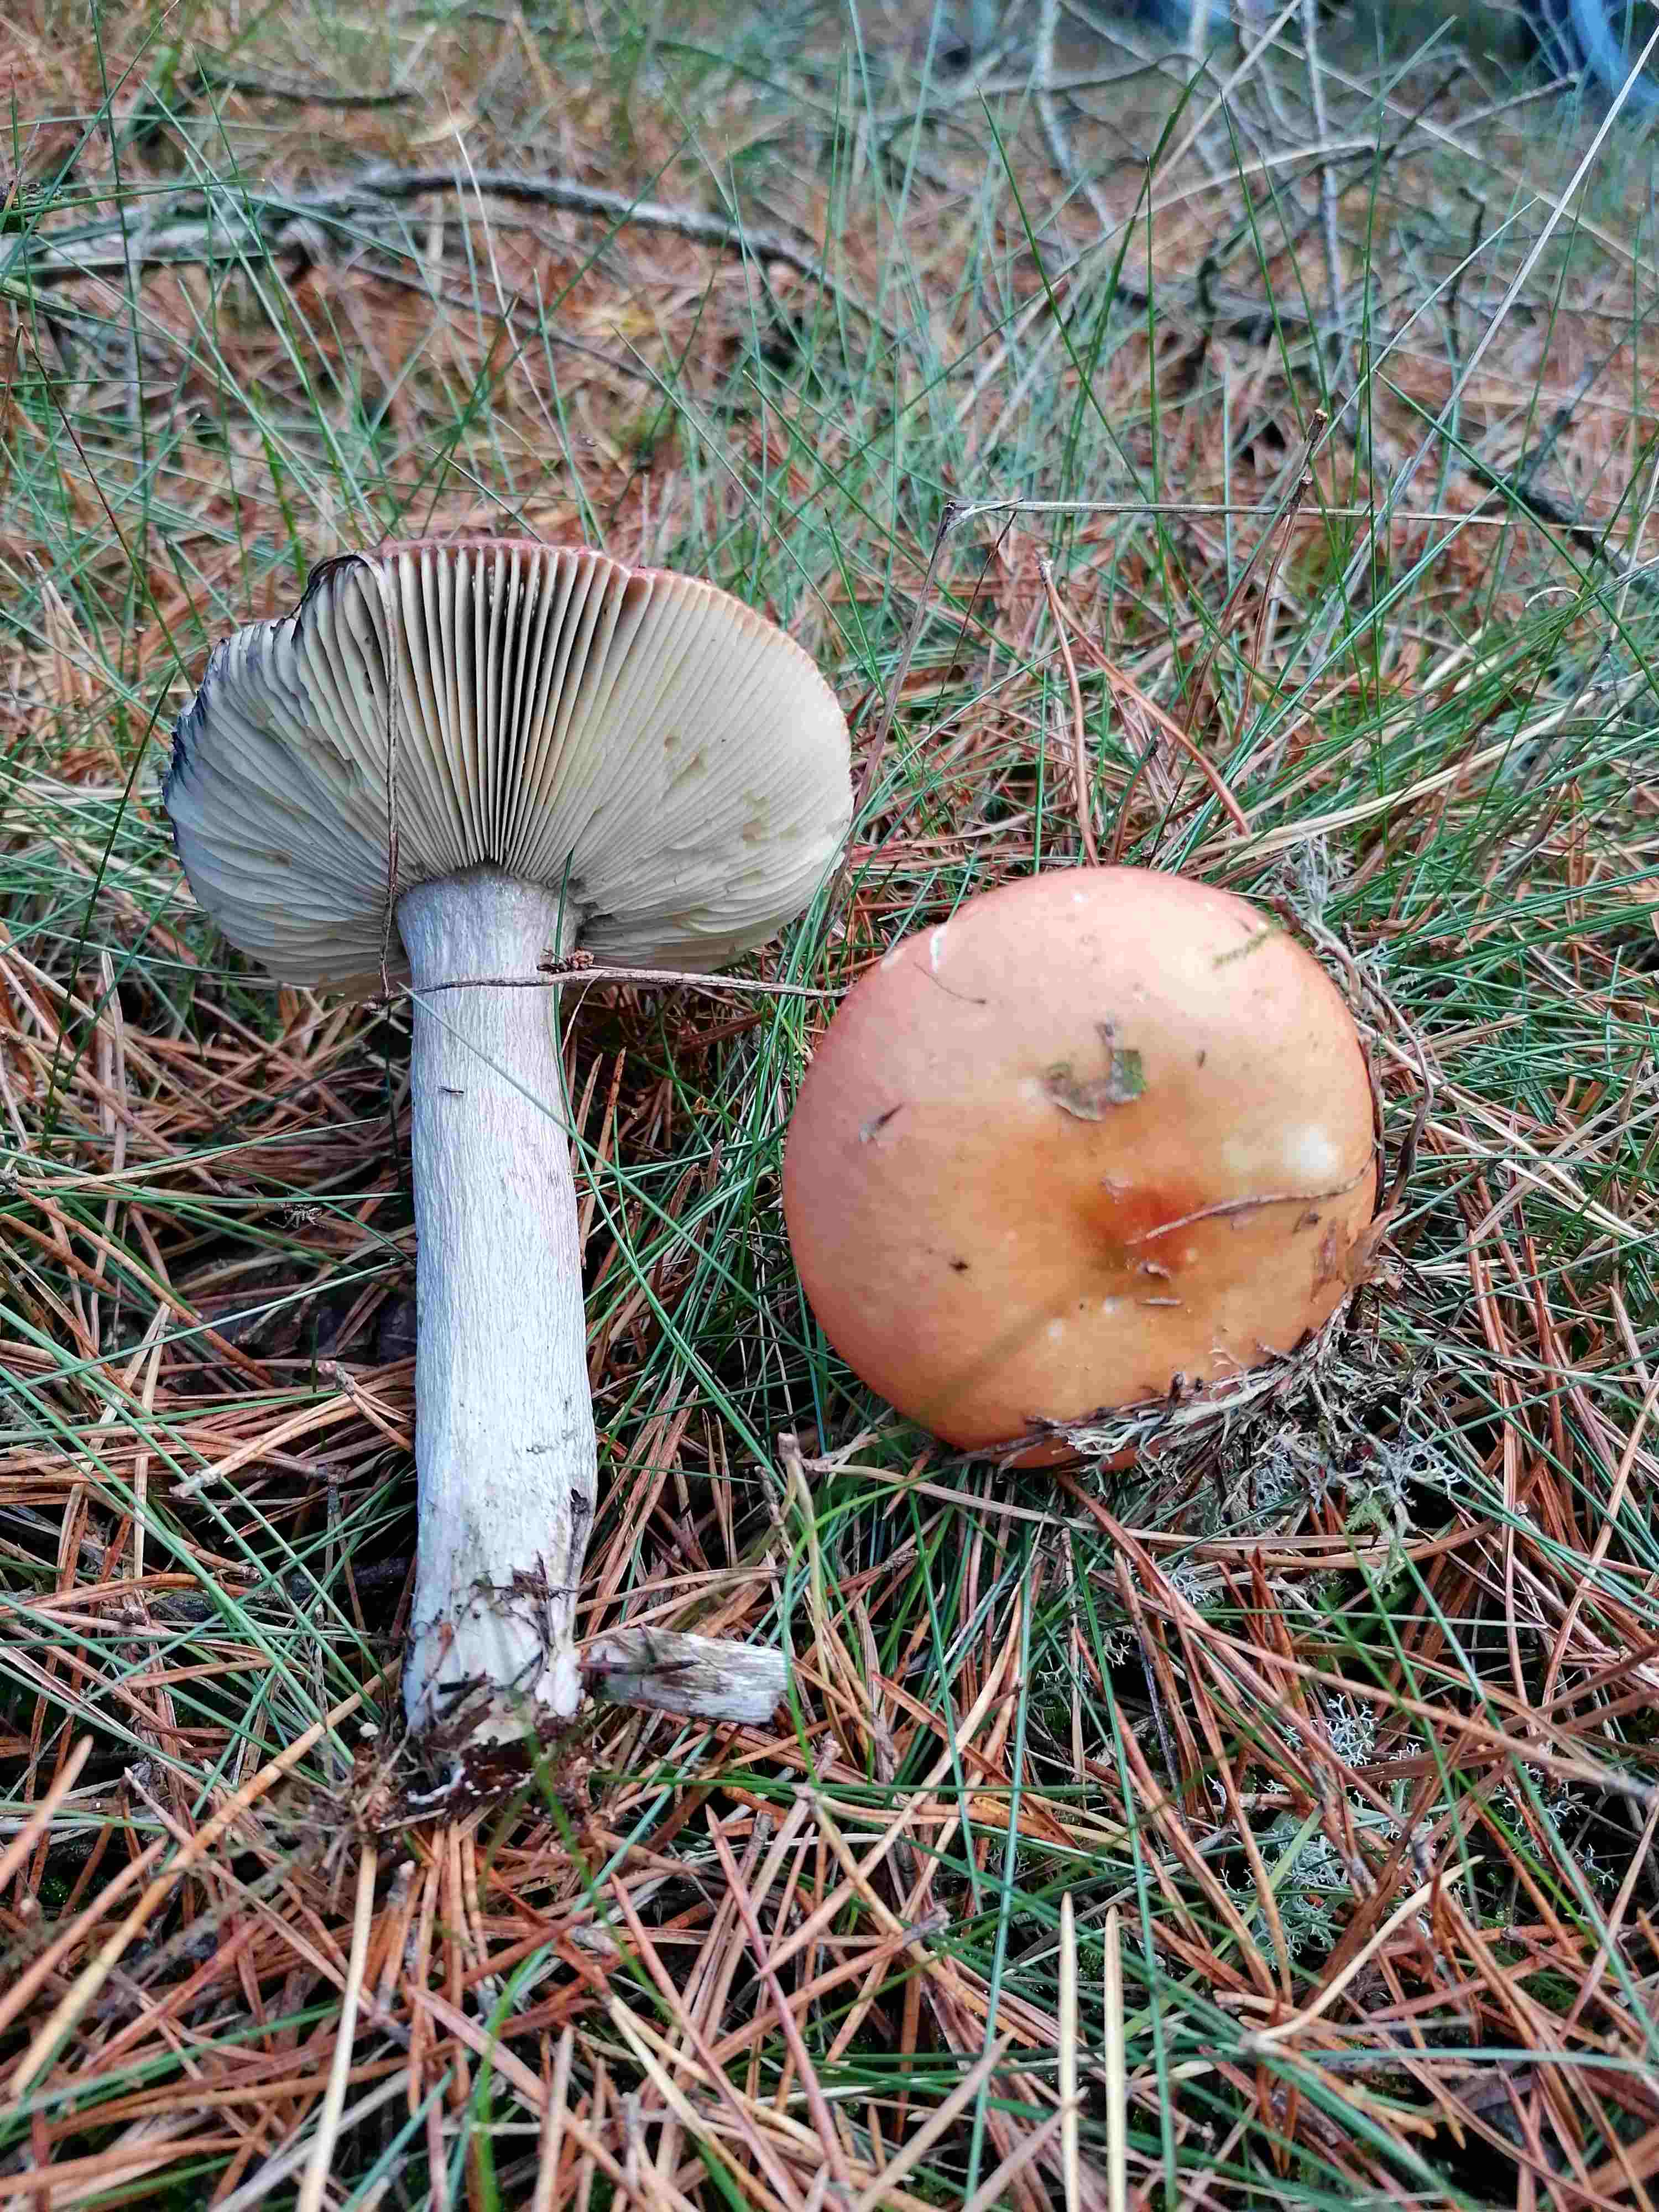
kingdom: Fungi
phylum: Basidiomycota
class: Agaricomycetes
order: Russulales
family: Russulaceae
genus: Russula
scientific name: Russula decolorans
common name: afblegende skørhat
